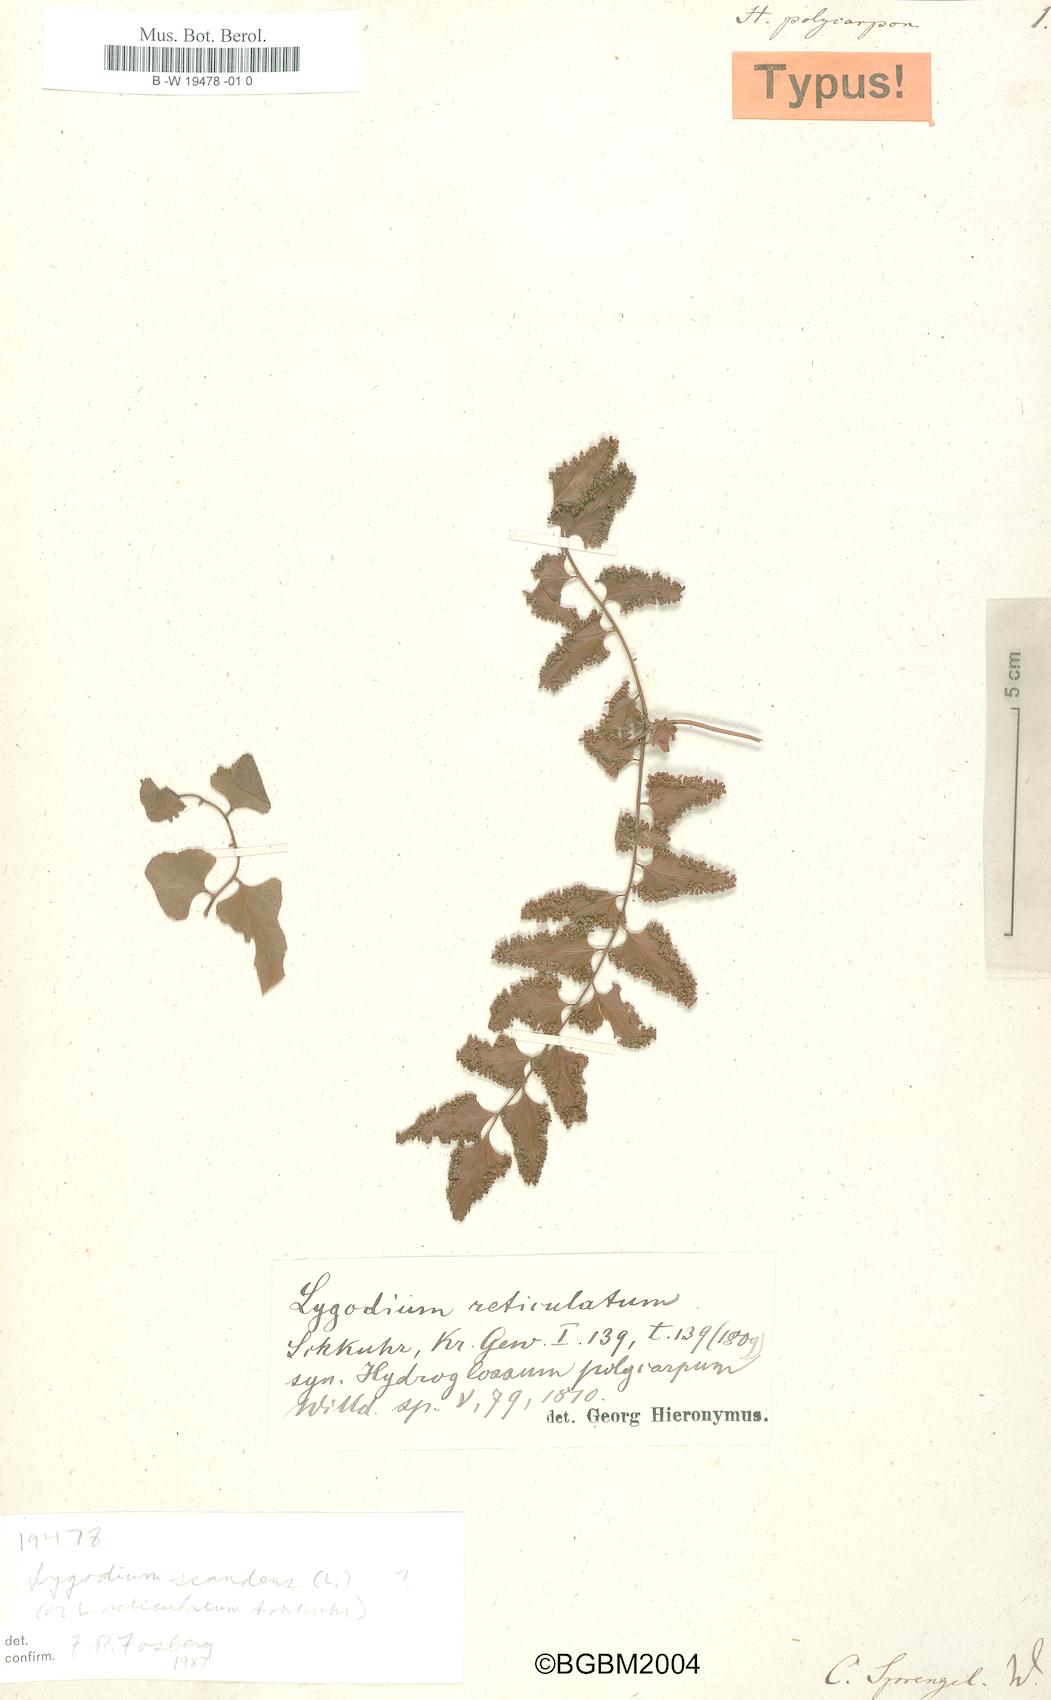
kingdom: Plantae
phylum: Tracheophyta
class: Polypodiopsida
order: Schizaeales
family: Lygodiaceae
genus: Lygodium
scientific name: Lygodium reticulatum
